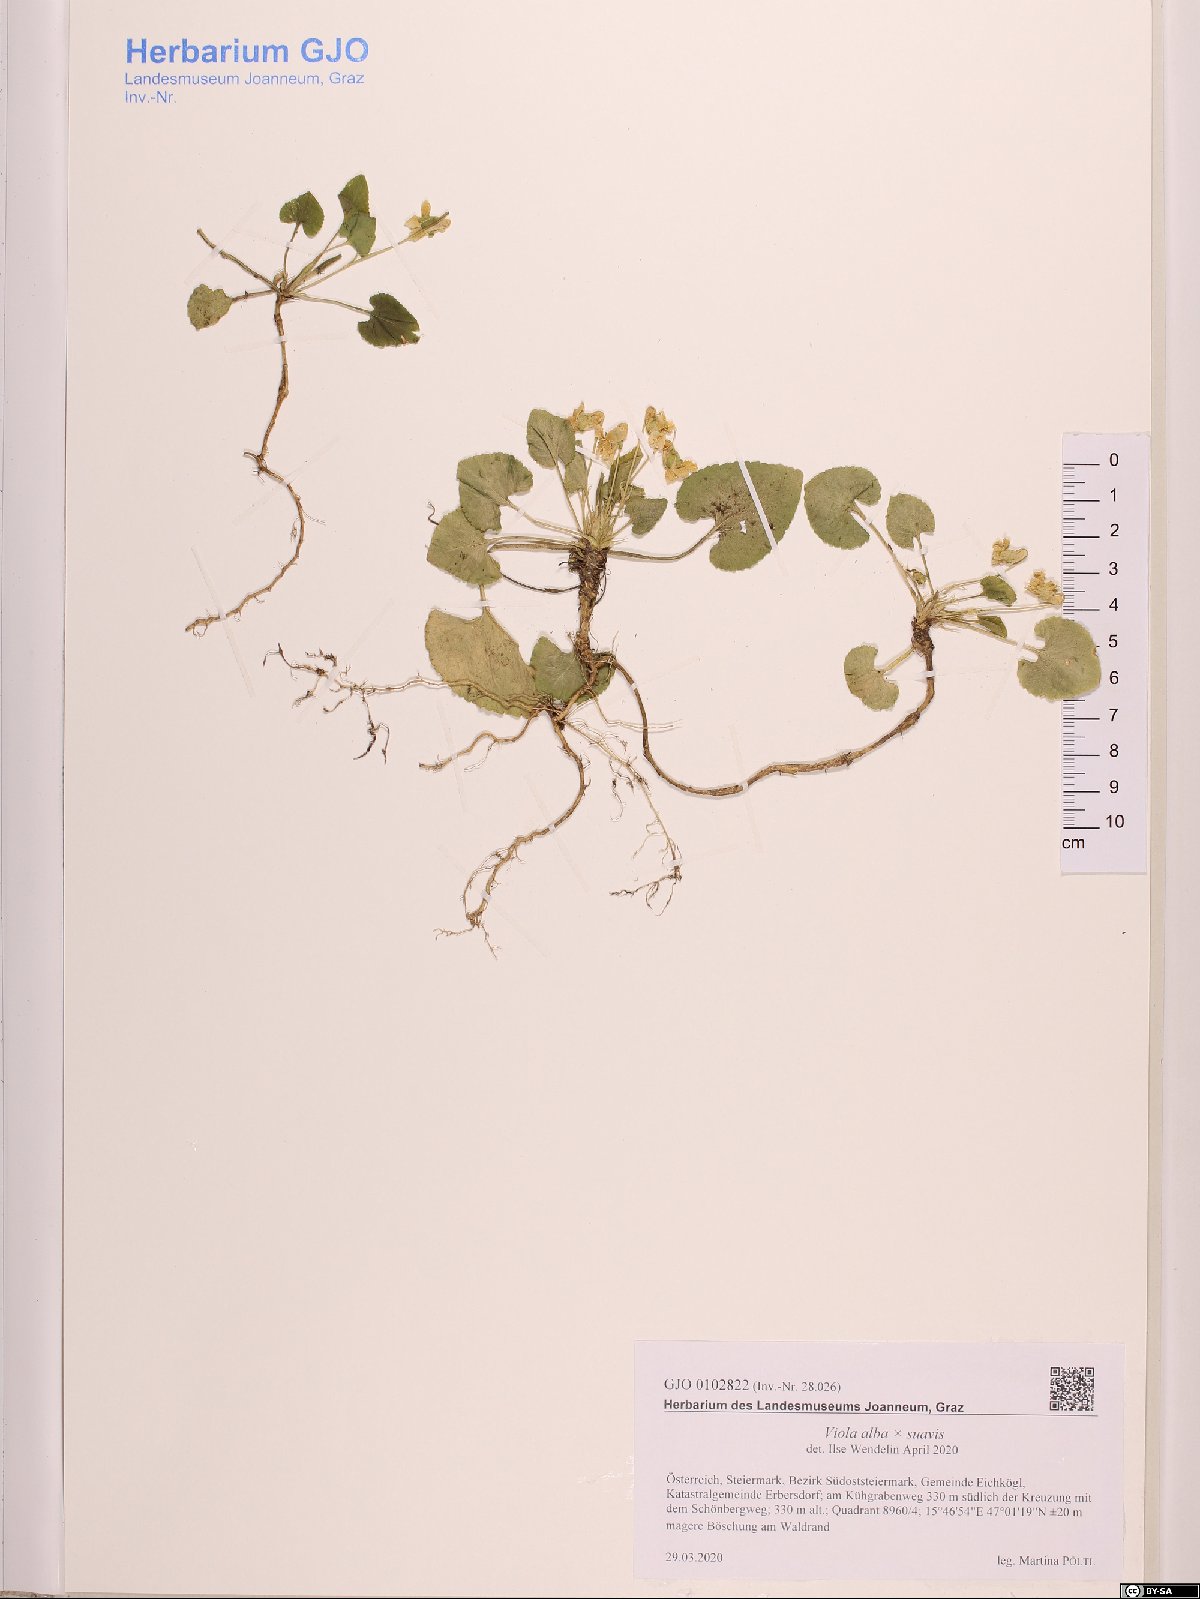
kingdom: Plantae
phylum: Tracheophyta
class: Magnoliopsida
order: Malpighiales
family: Violaceae
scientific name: Violaceae
